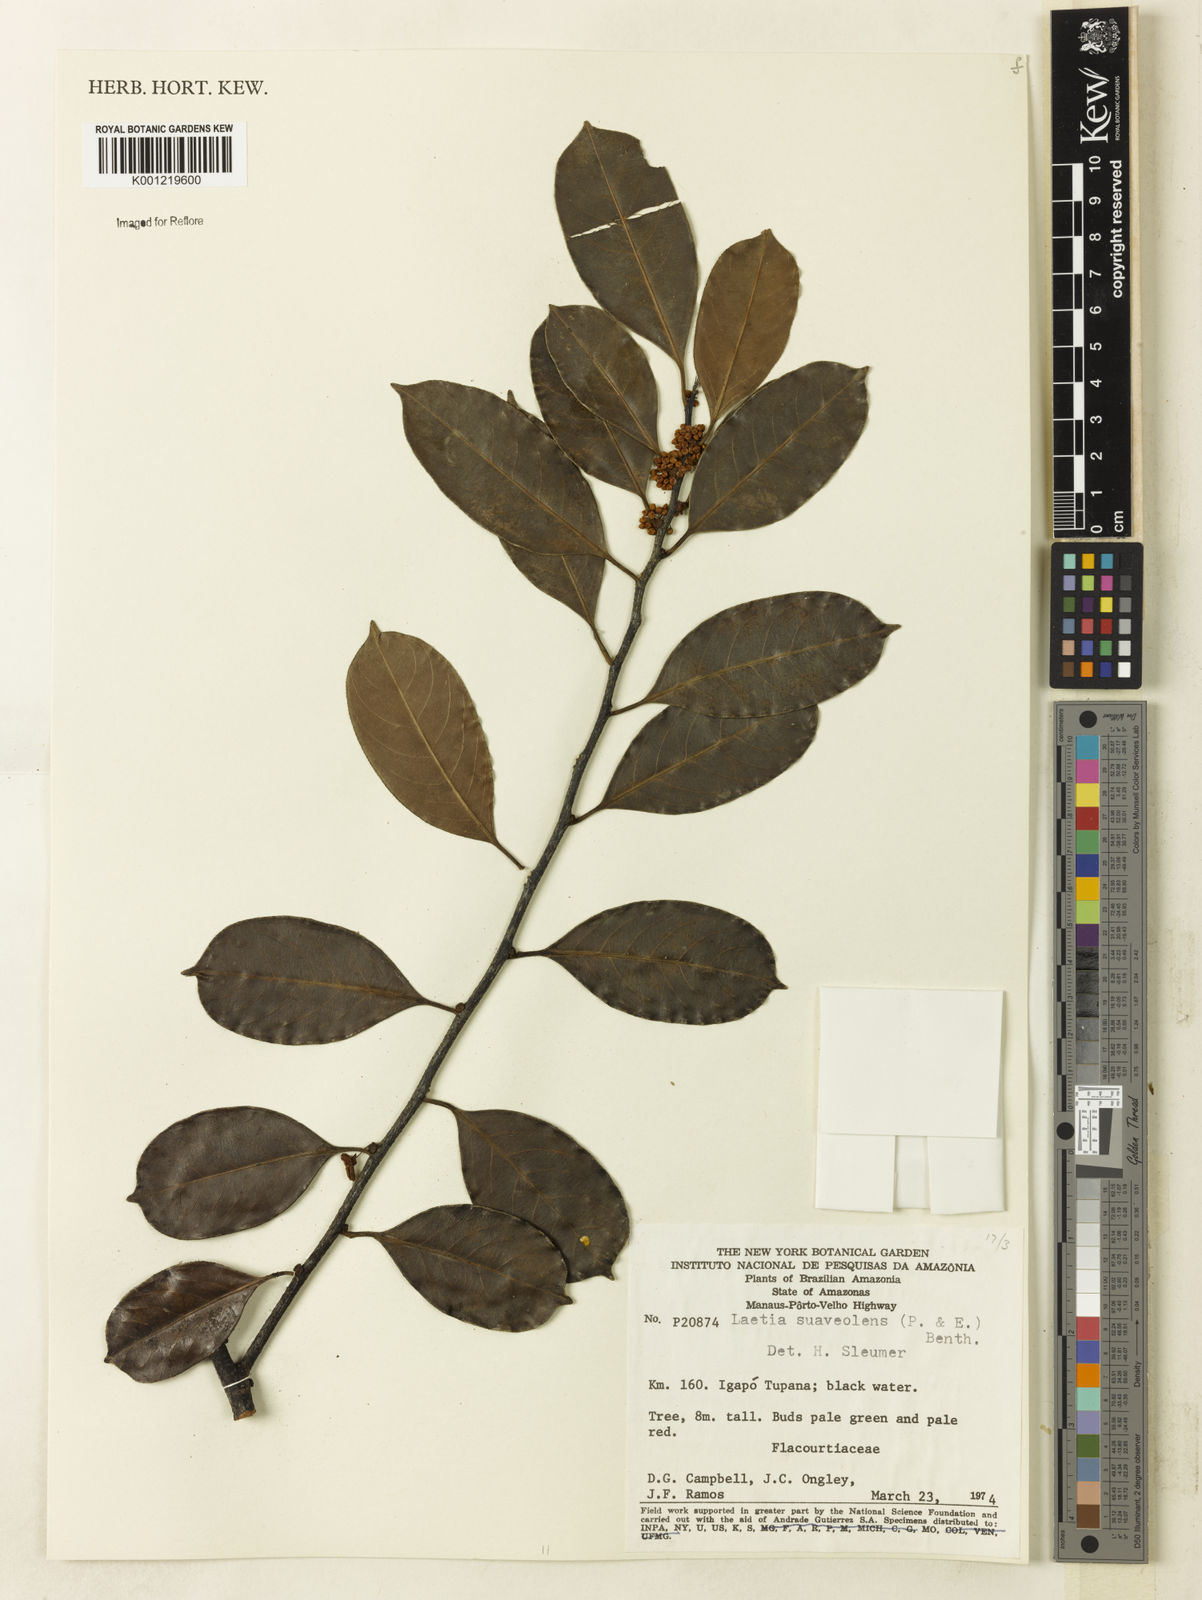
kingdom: Plantae
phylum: Tracheophyta
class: Magnoliopsida
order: Malpighiales
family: Salicaceae
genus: Casearia
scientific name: Casearia suaveolens
